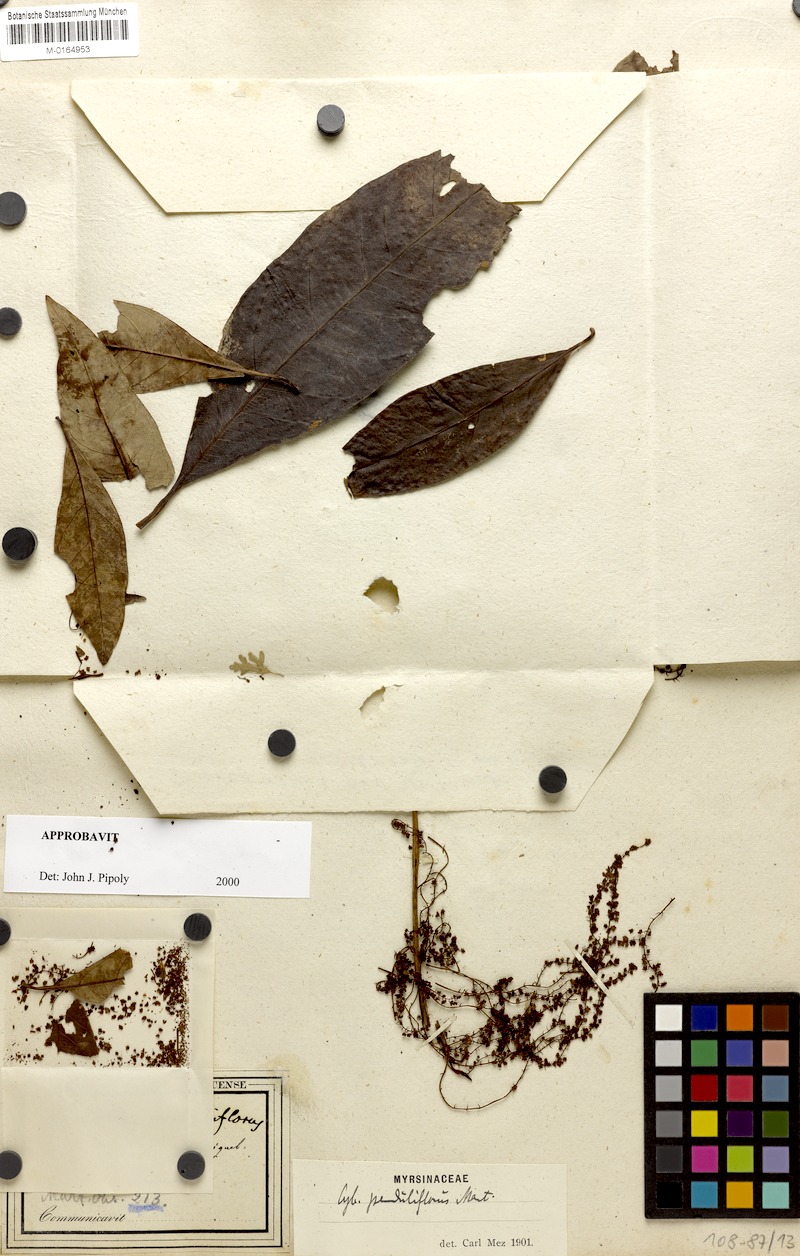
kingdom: Plantae
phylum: Tracheophyta
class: Magnoliopsida
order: Ericales
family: Primulaceae
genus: Cybianthus
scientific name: Cybianthus penduliflorus
